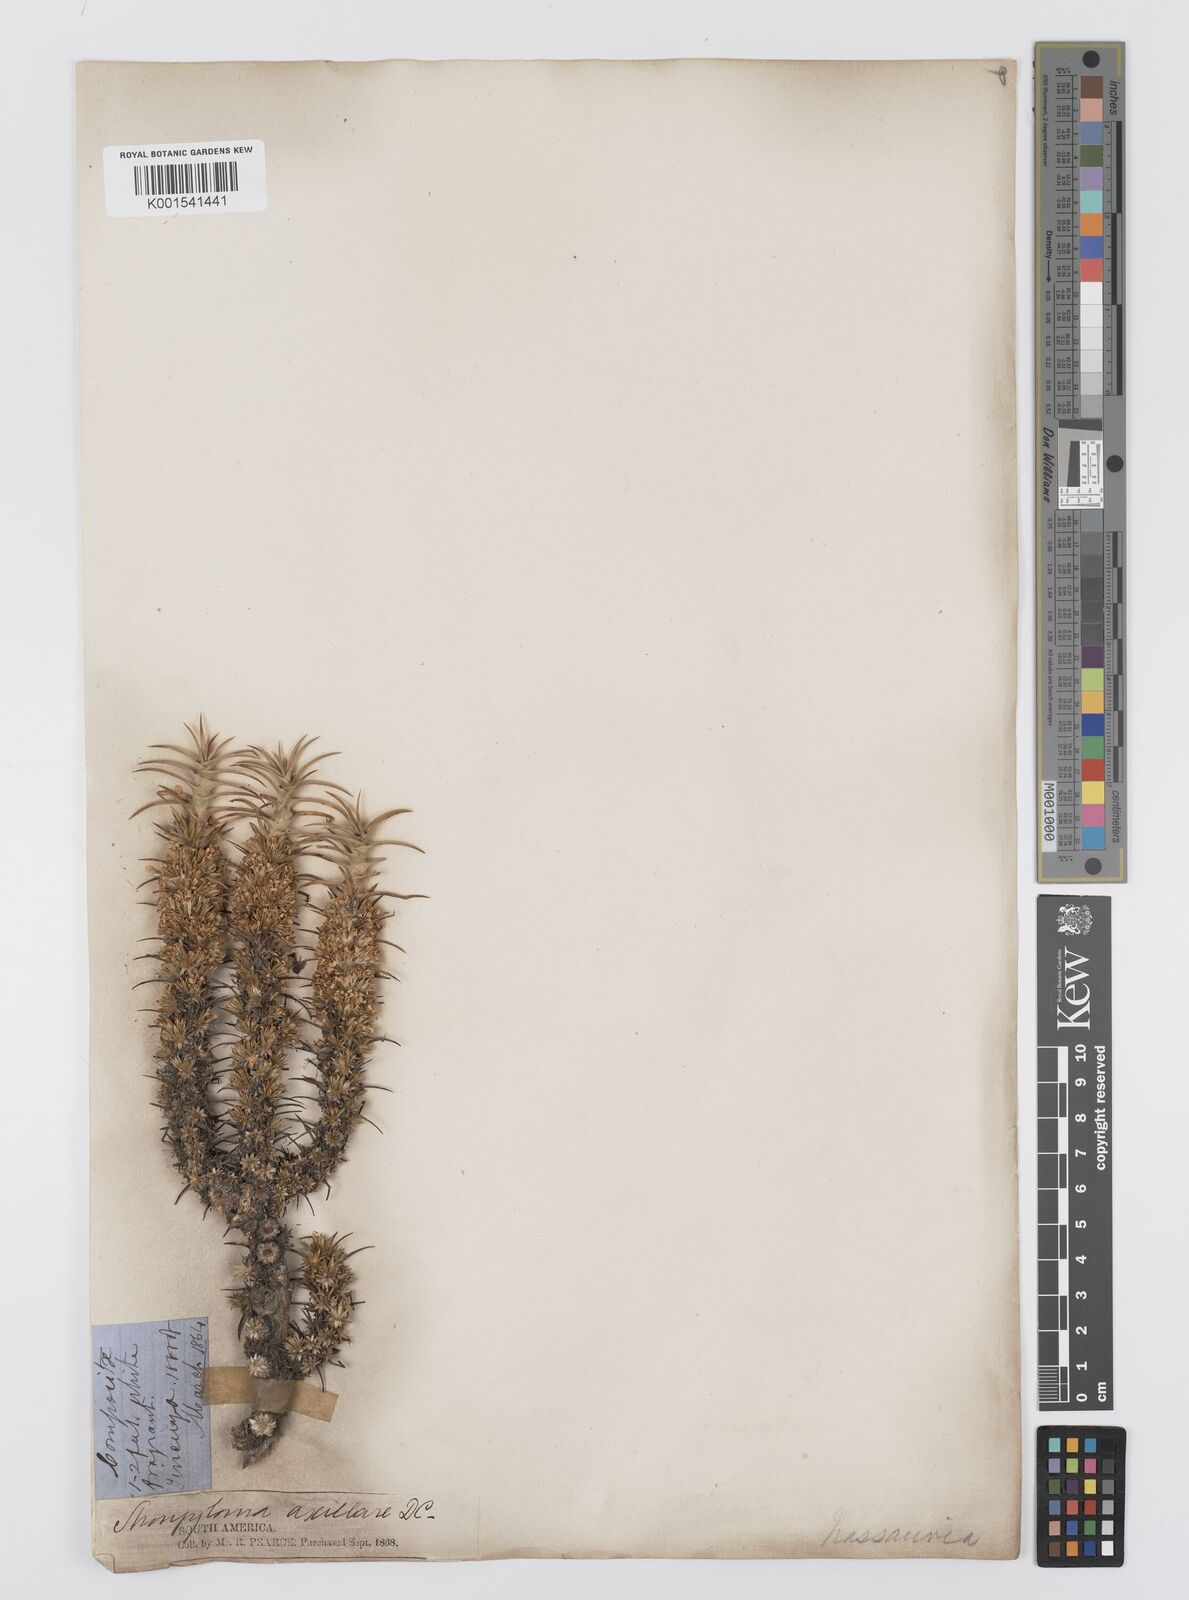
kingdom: Plantae
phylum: Tracheophyta
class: Magnoliopsida
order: Asterales
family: Asteraceae
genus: Nassauvia
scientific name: Nassauvia axillaris
